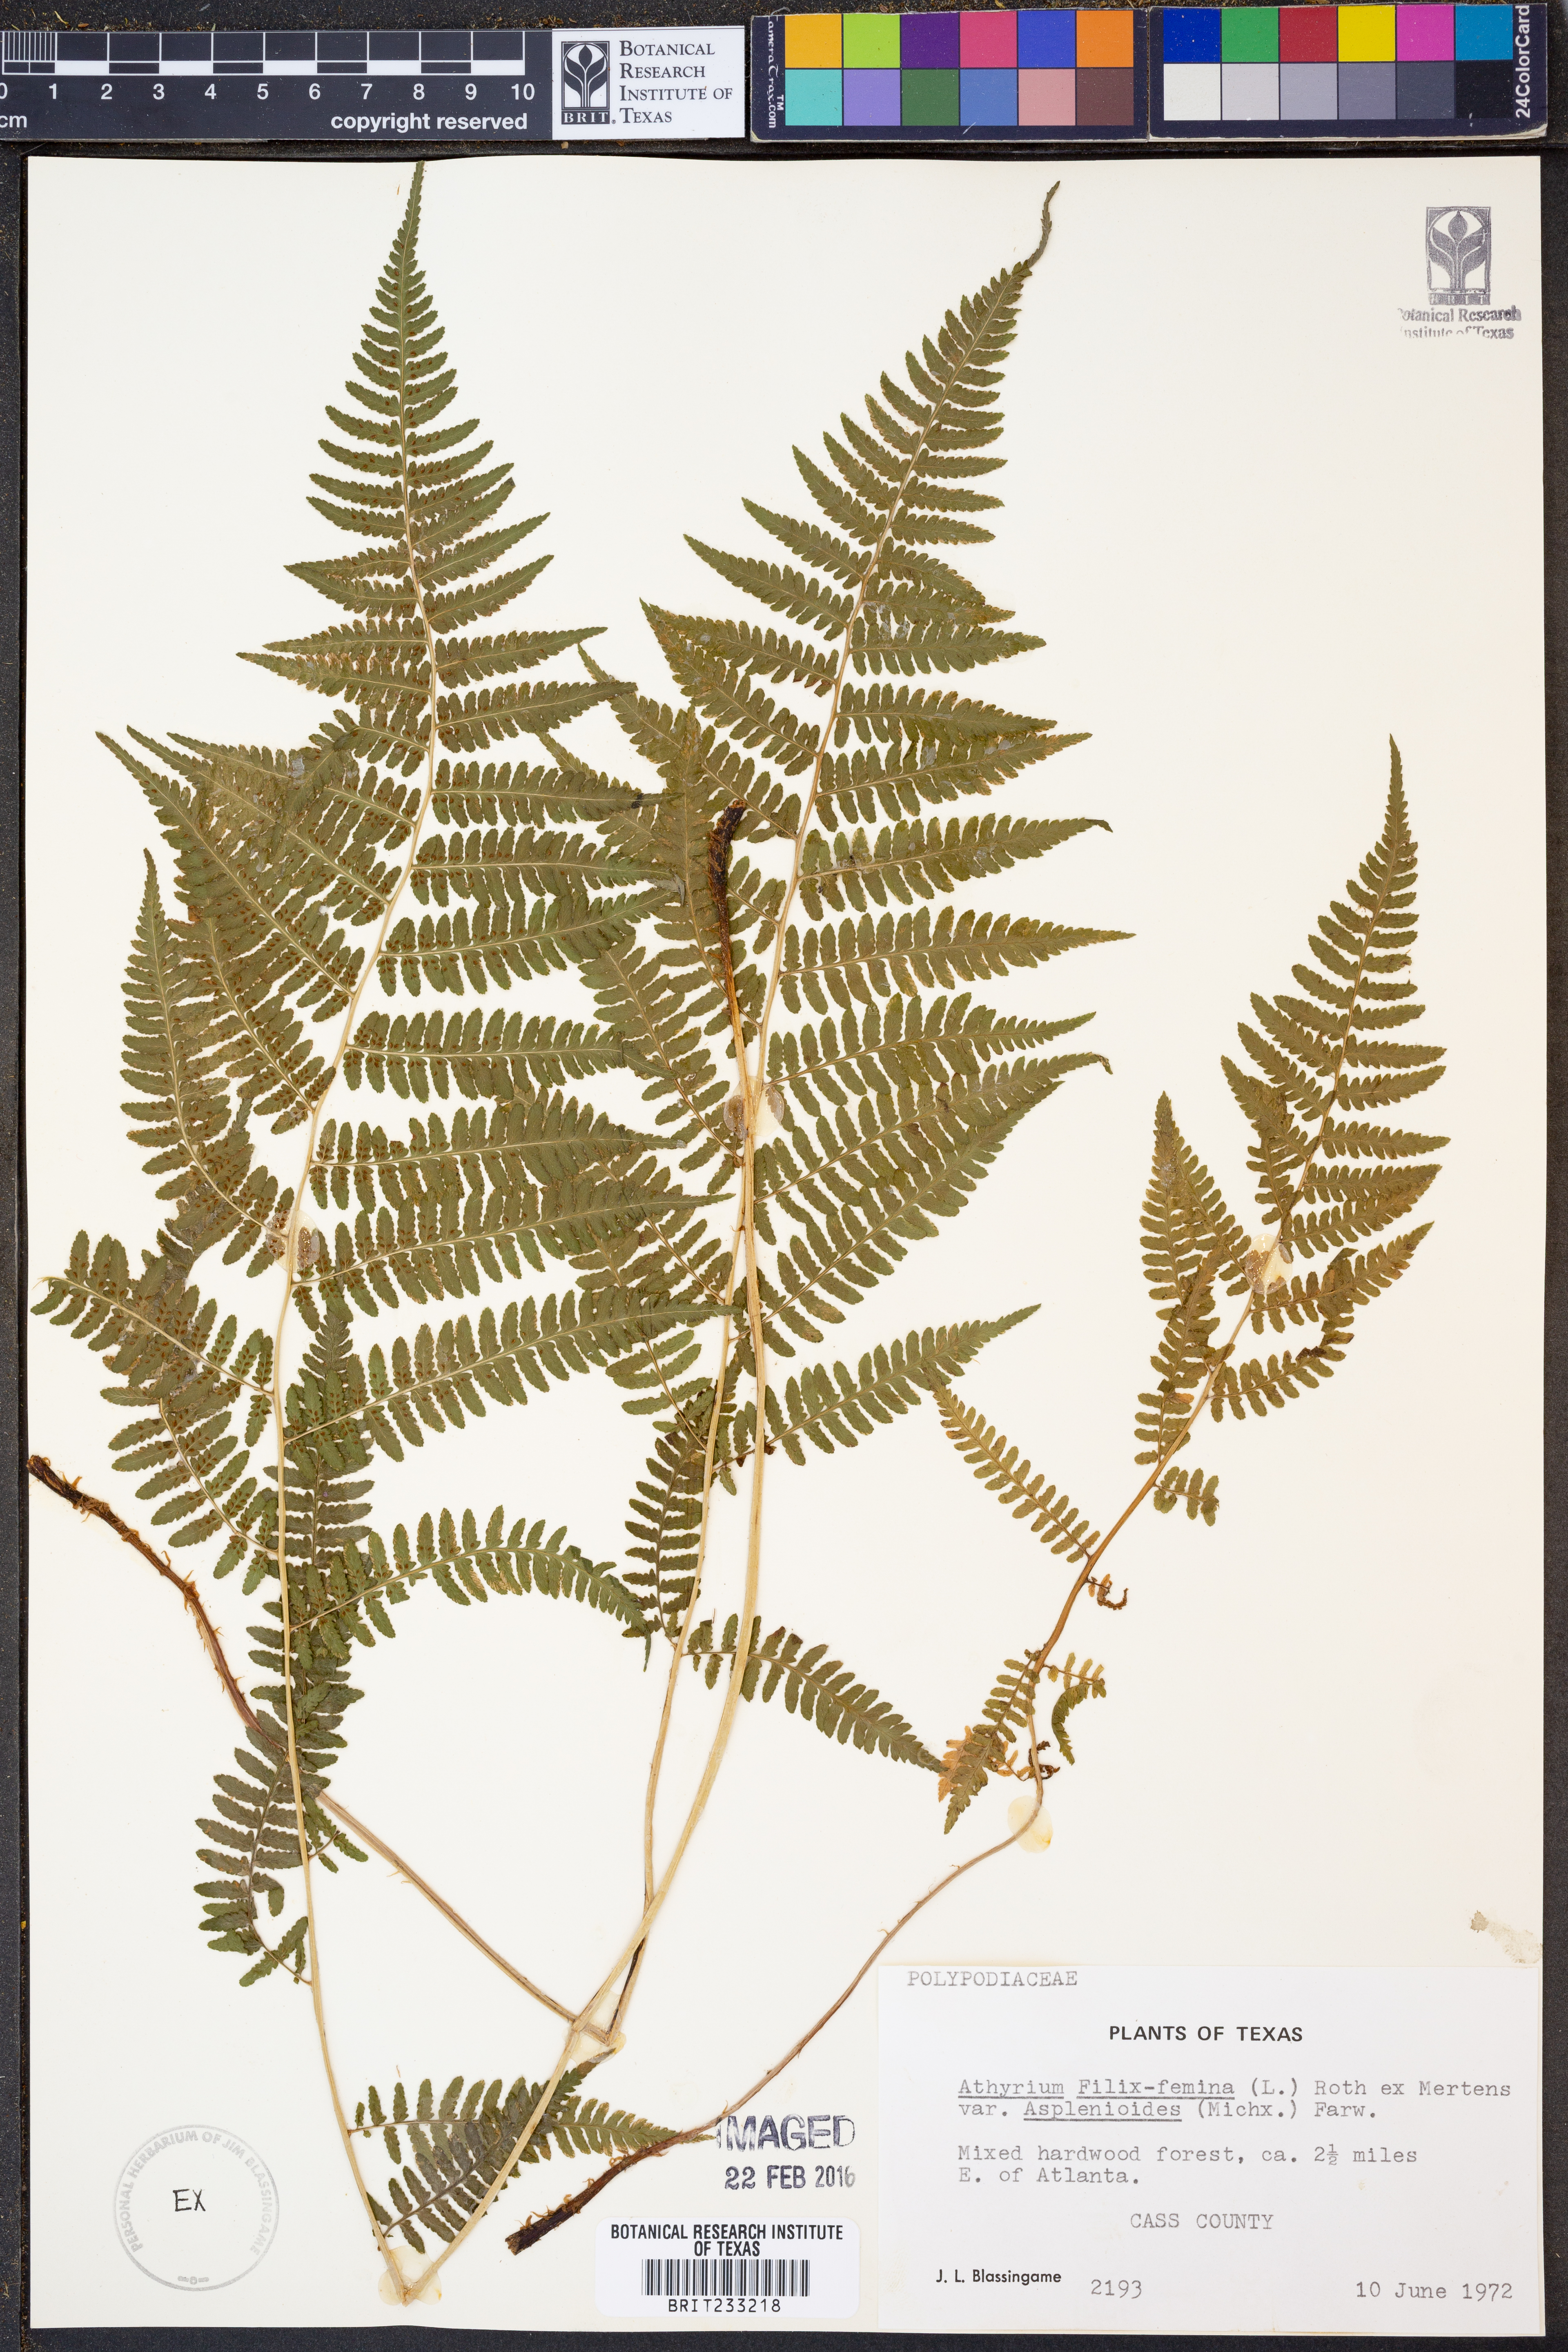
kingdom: Plantae
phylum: Tracheophyta
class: Polypodiopsida
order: Polypodiales
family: Athyriaceae
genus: Athyrium
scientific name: Athyrium asplenioides
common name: Southern lady fern
